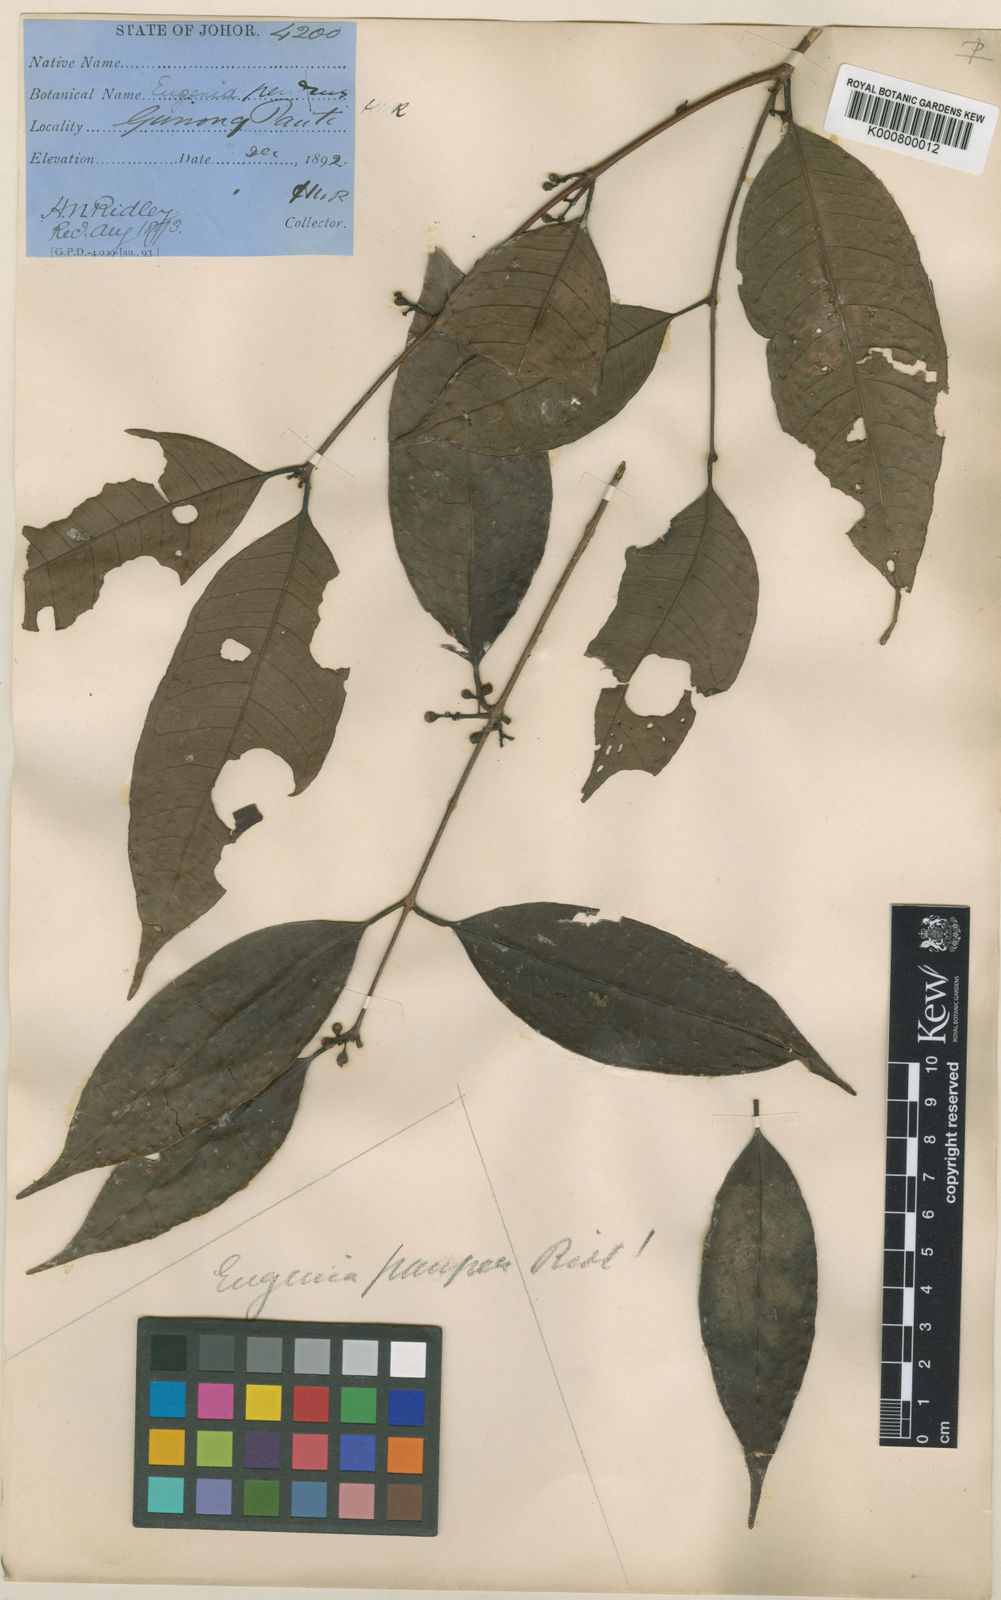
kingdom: Plantae
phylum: Tracheophyta
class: Magnoliopsida
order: Myrtales
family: Myrtaceae
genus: Syzygium
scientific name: Syzygium pauper
